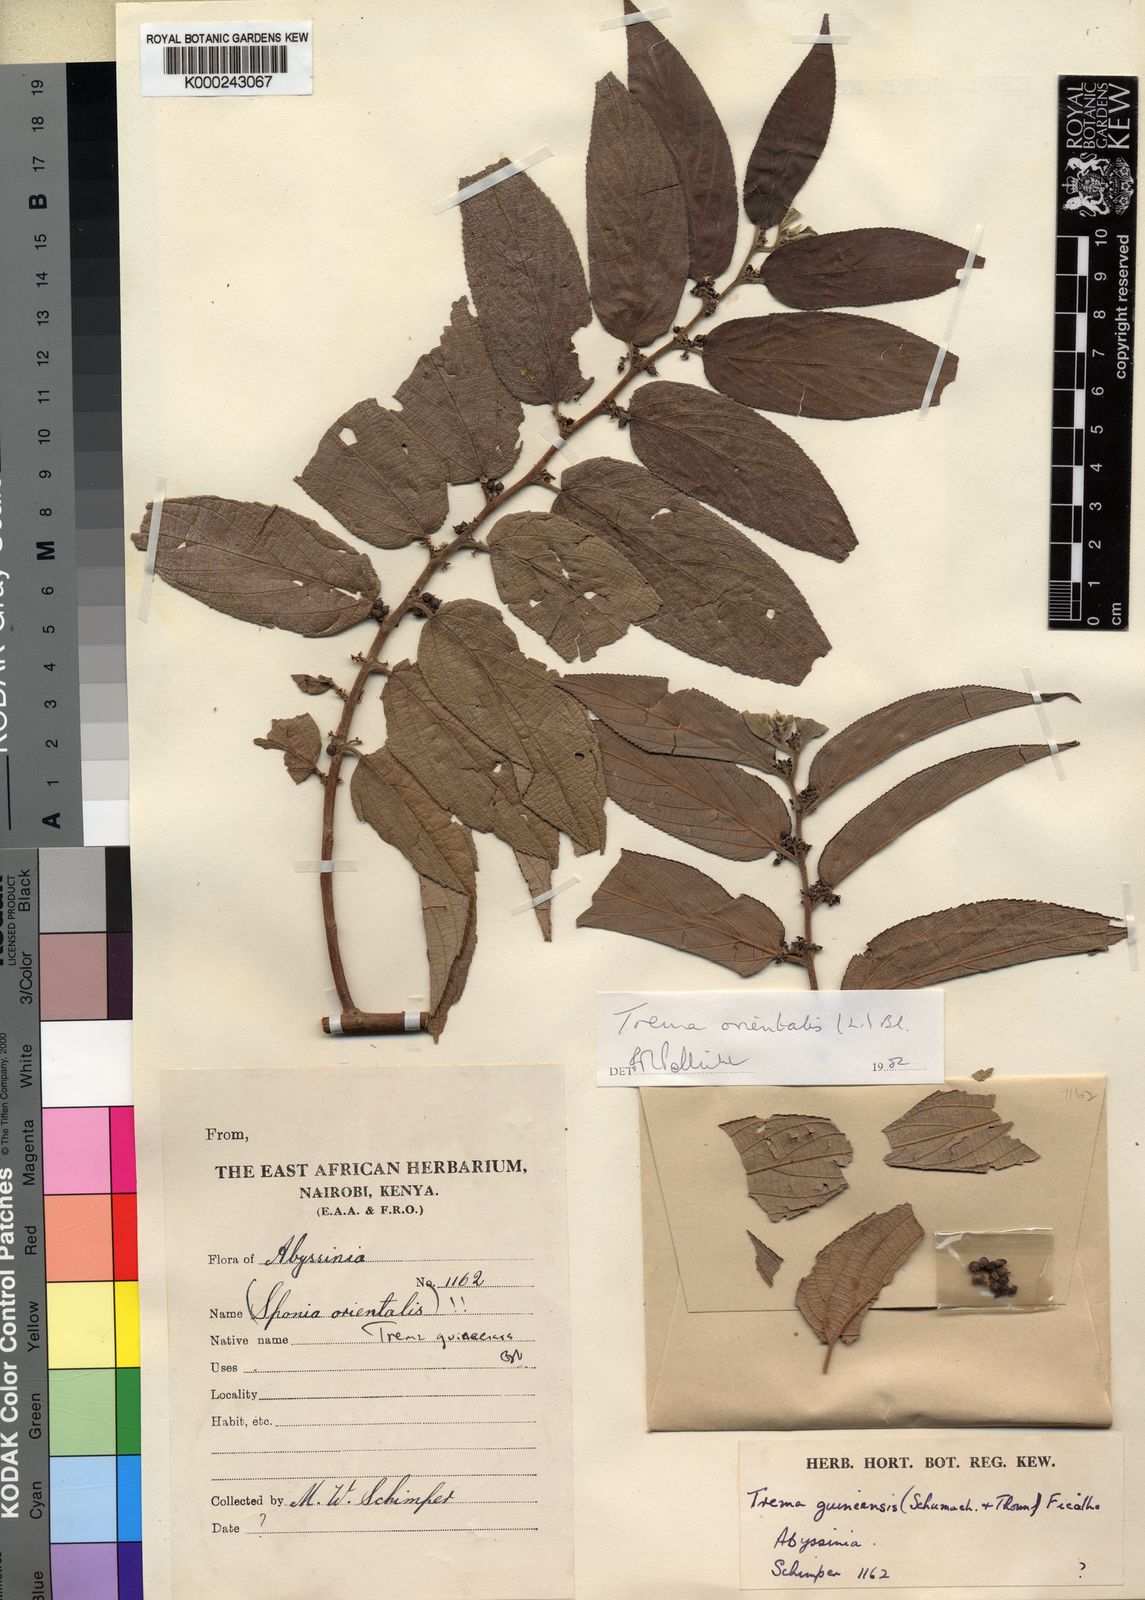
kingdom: Plantae
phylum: Tracheophyta
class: Magnoliopsida
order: Rosales
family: Cannabaceae
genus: Trema
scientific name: Trema
